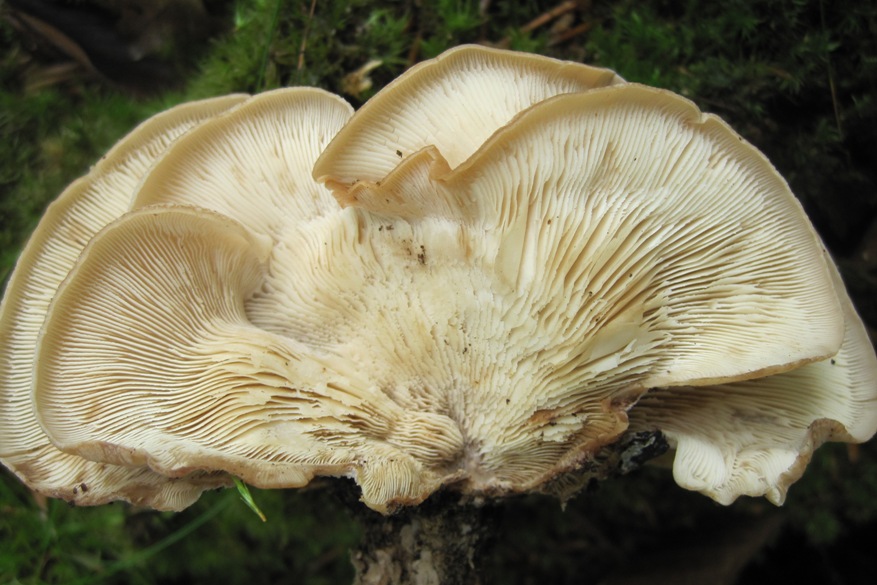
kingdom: Fungi
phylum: Basidiomycota
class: Agaricomycetes
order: Russulales
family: Auriscalpiaceae
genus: Lentinellus
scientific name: Lentinellus ursinus
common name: børstehåret savbladhat
